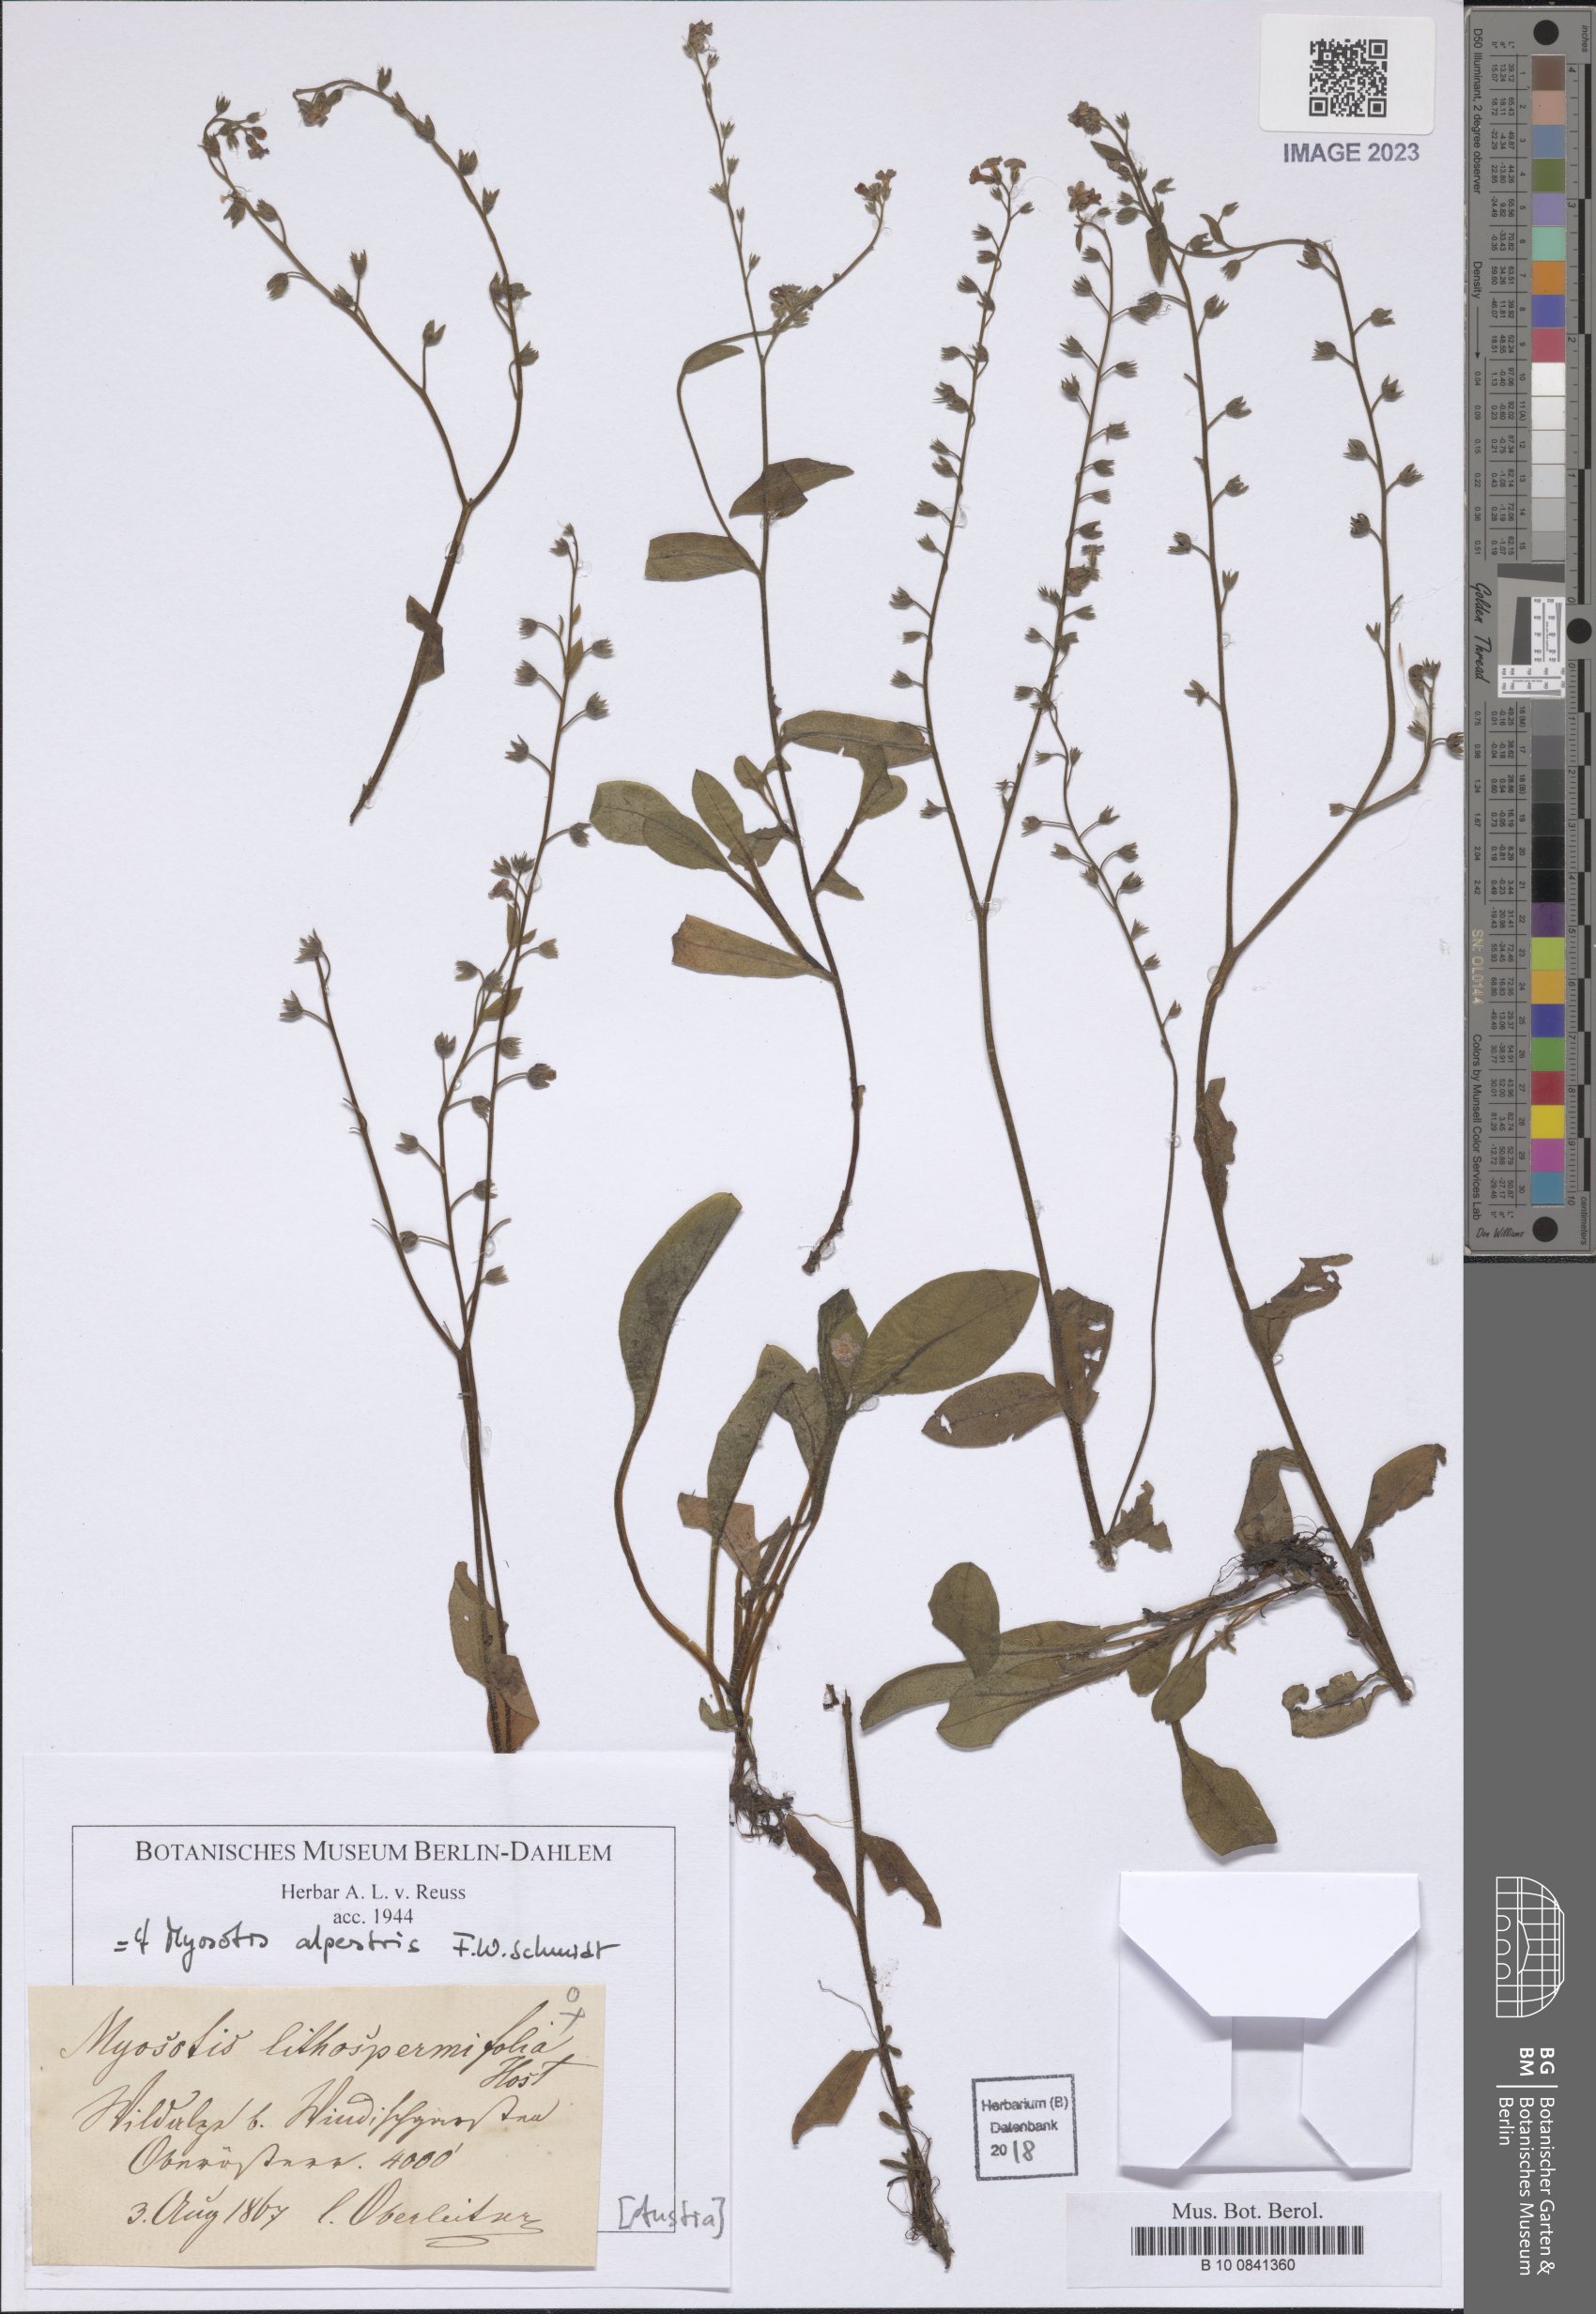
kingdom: Plantae
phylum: Tracheophyta
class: Magnoliopsida
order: Boraginales
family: Boraginaceae
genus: Myosotis
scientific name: Myosotis alpestris
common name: Alpine forget-me-not
